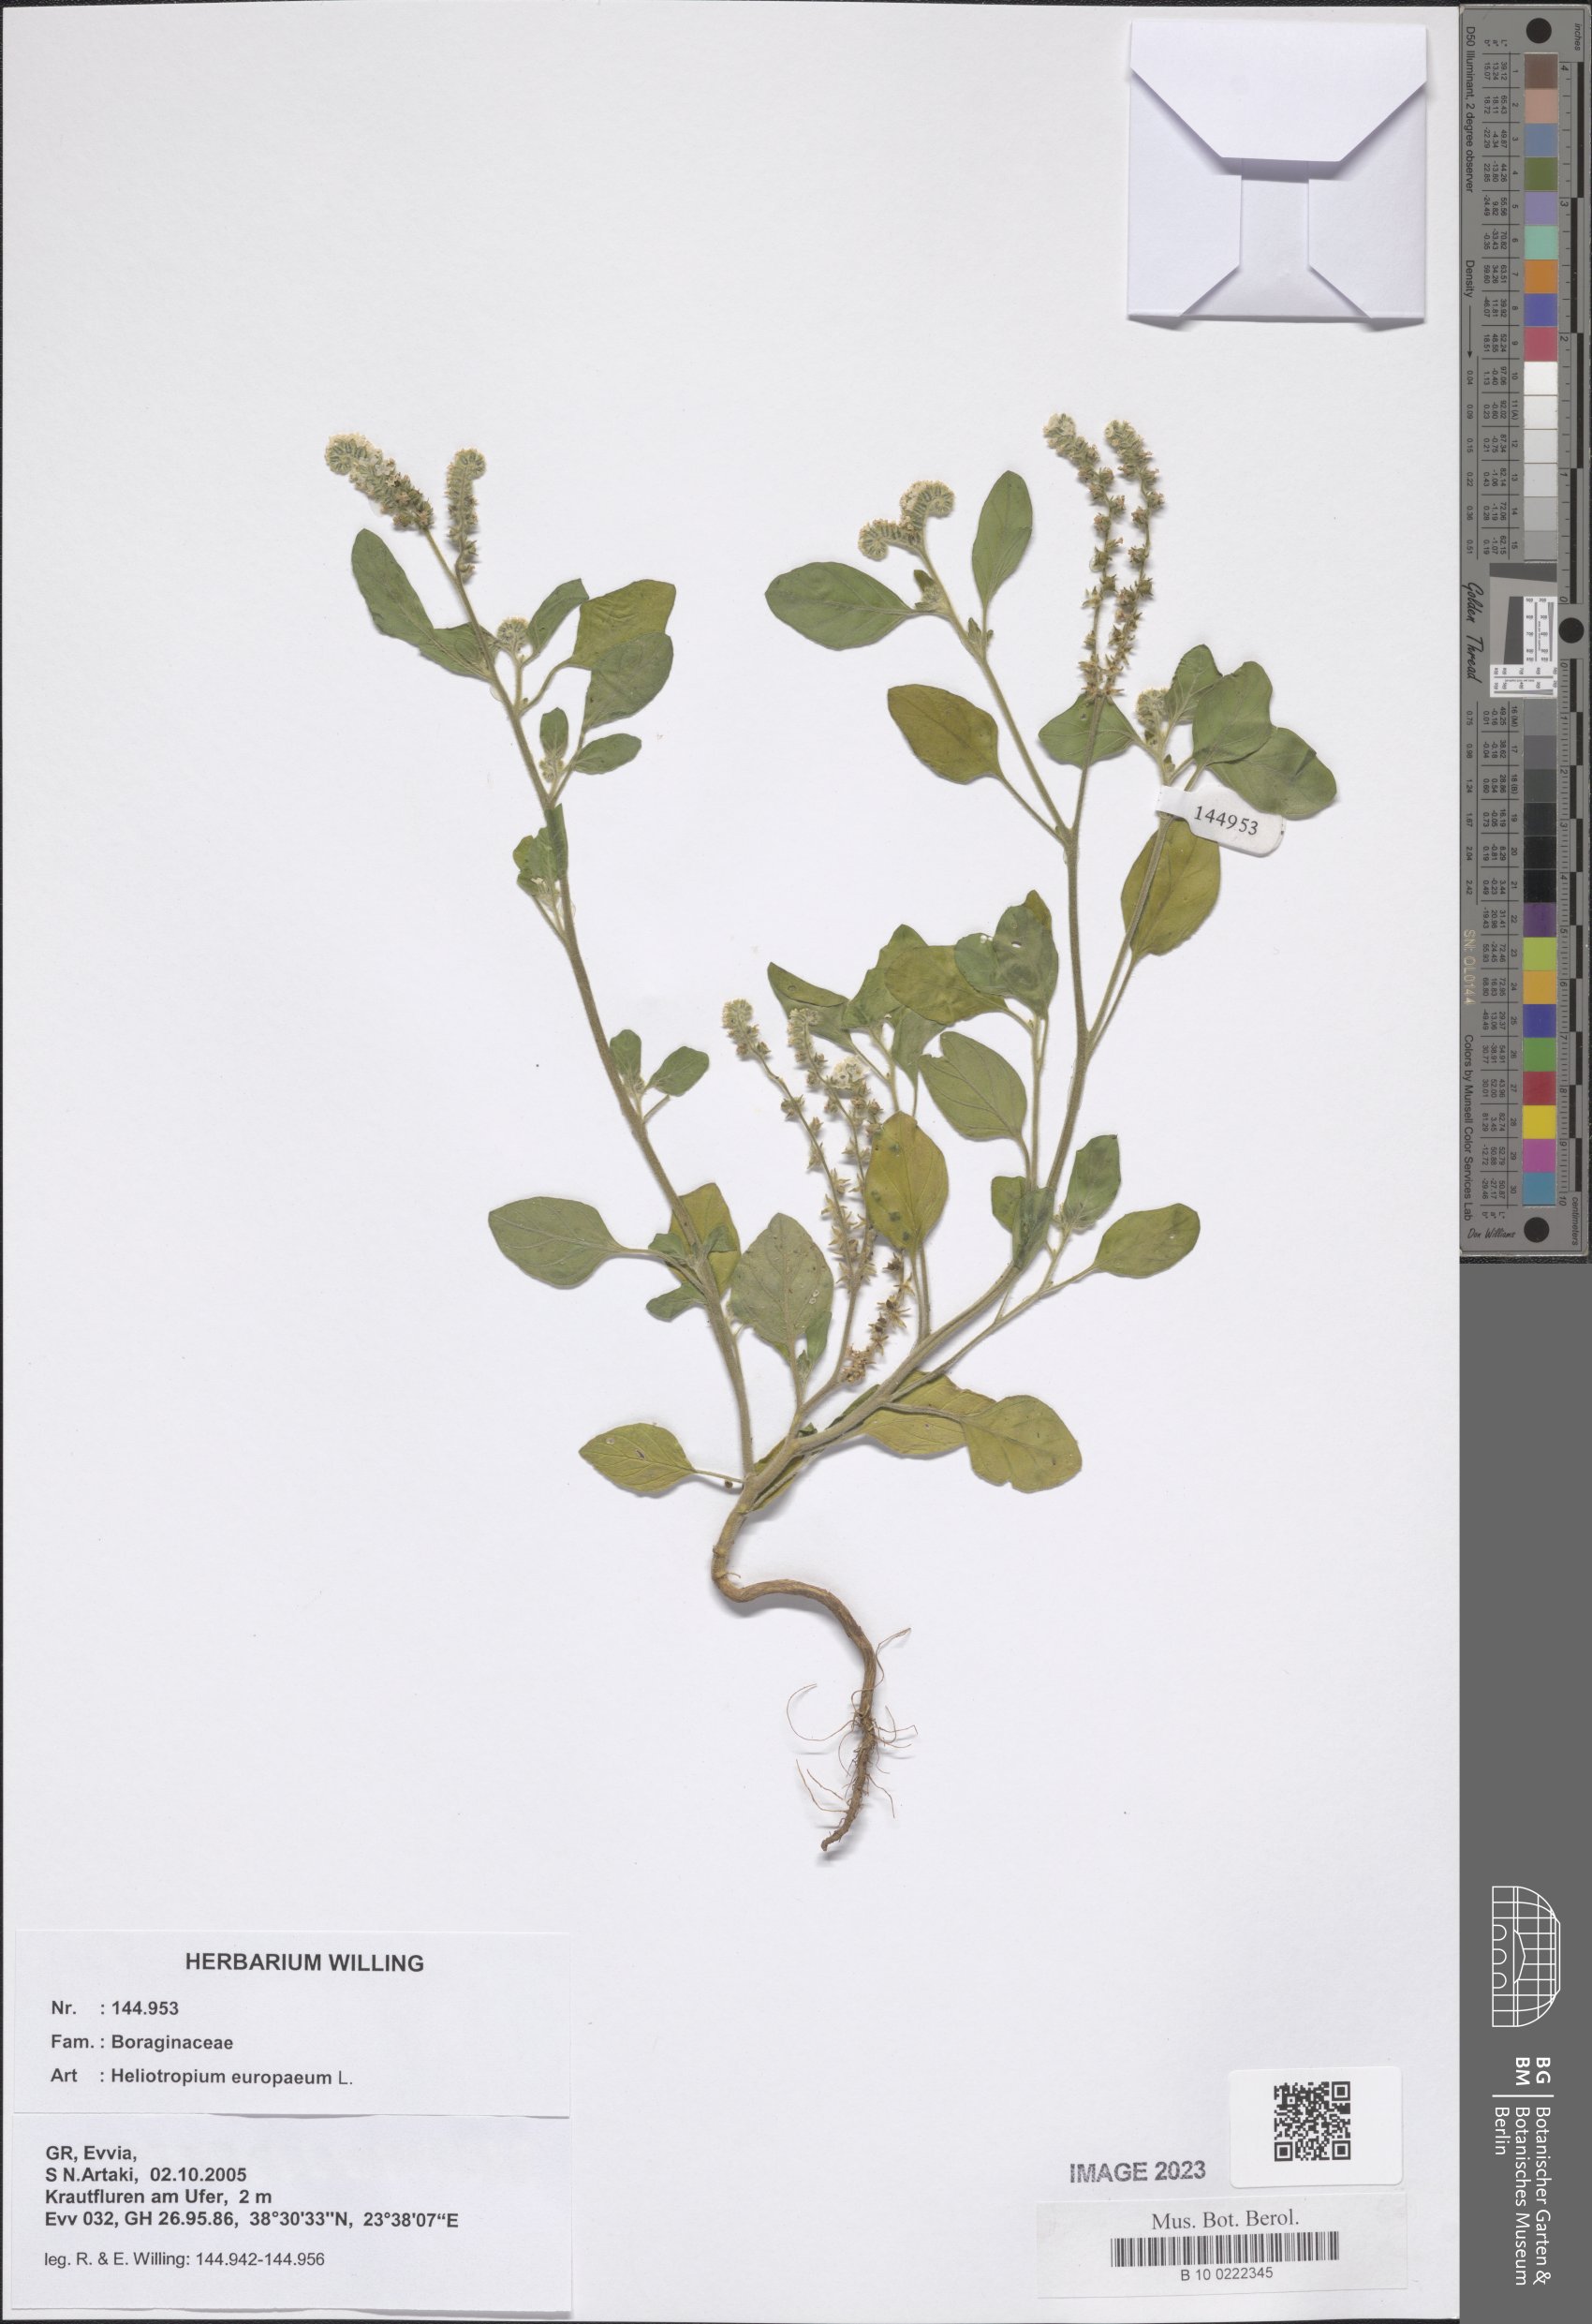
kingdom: Plantae
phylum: Tracheophyta
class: Magnoliopsida
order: Boraginales
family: Heliotropiaceae
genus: Heliotropium
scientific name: Heliotropium europaeum
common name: European heliotrope
